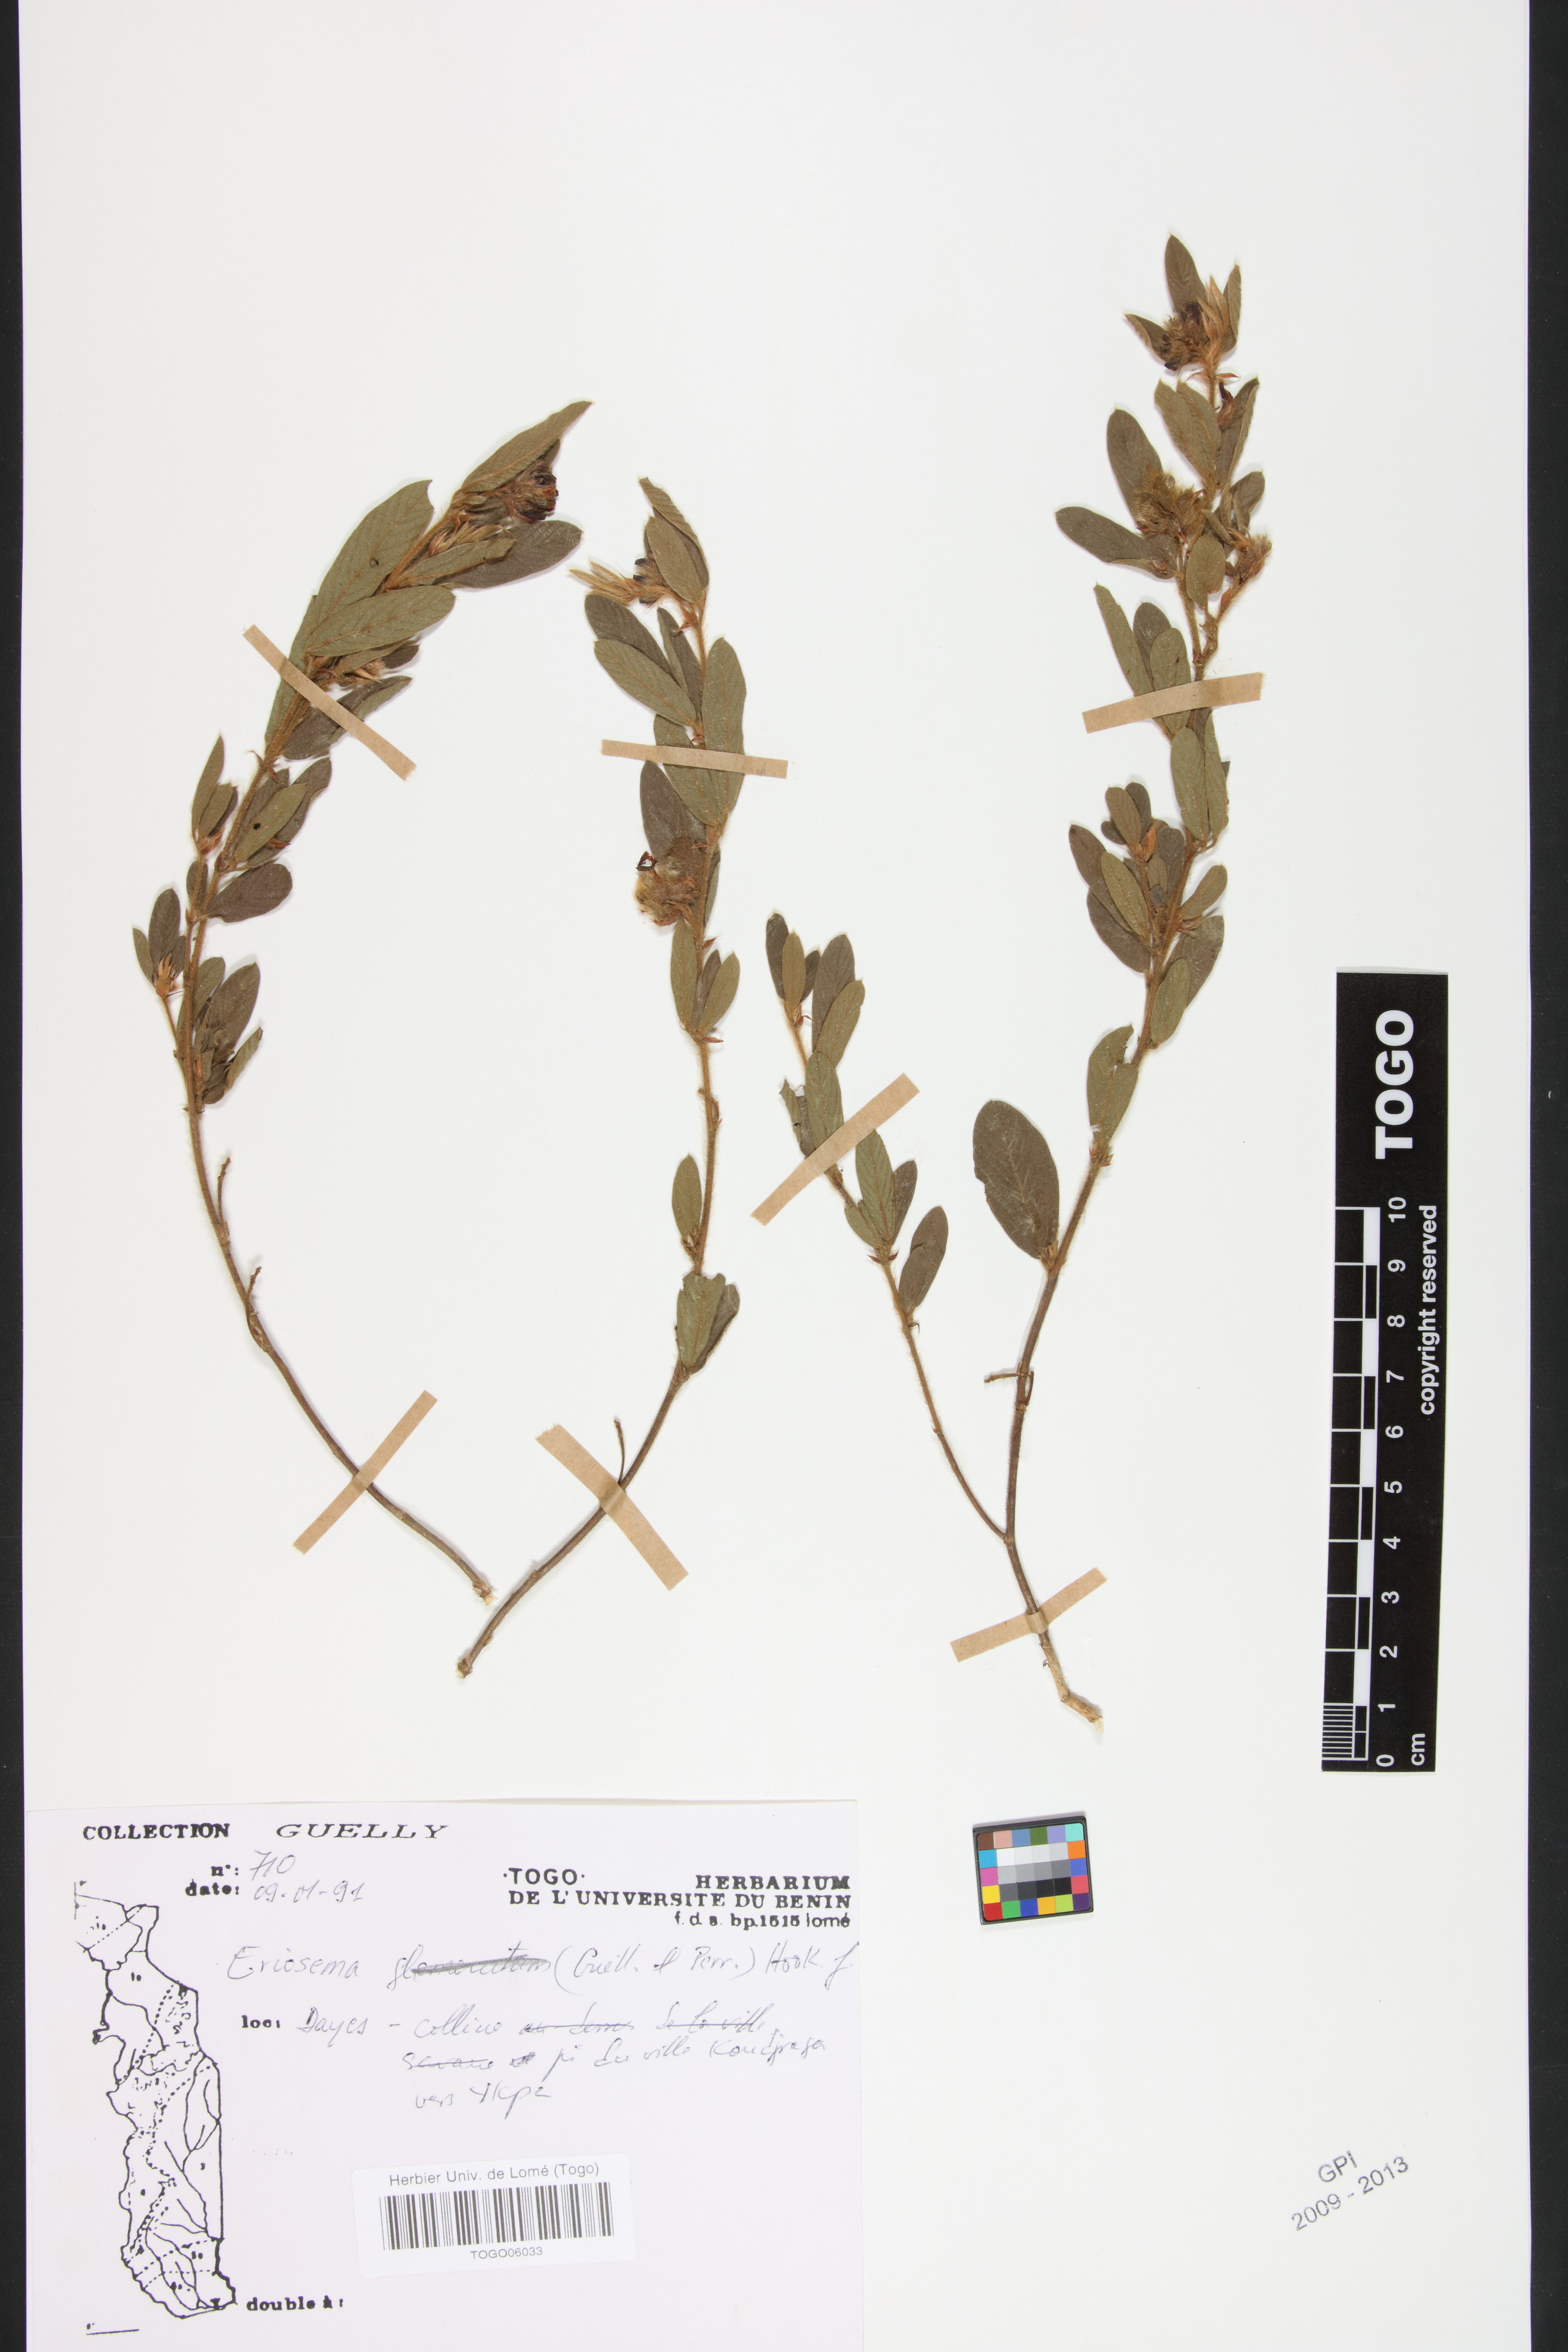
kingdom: Plantae
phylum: Tracheophyta
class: Magnoliopsida
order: Fabales
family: Fabaceae
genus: Eriosema
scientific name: Eriosema glomeratum
